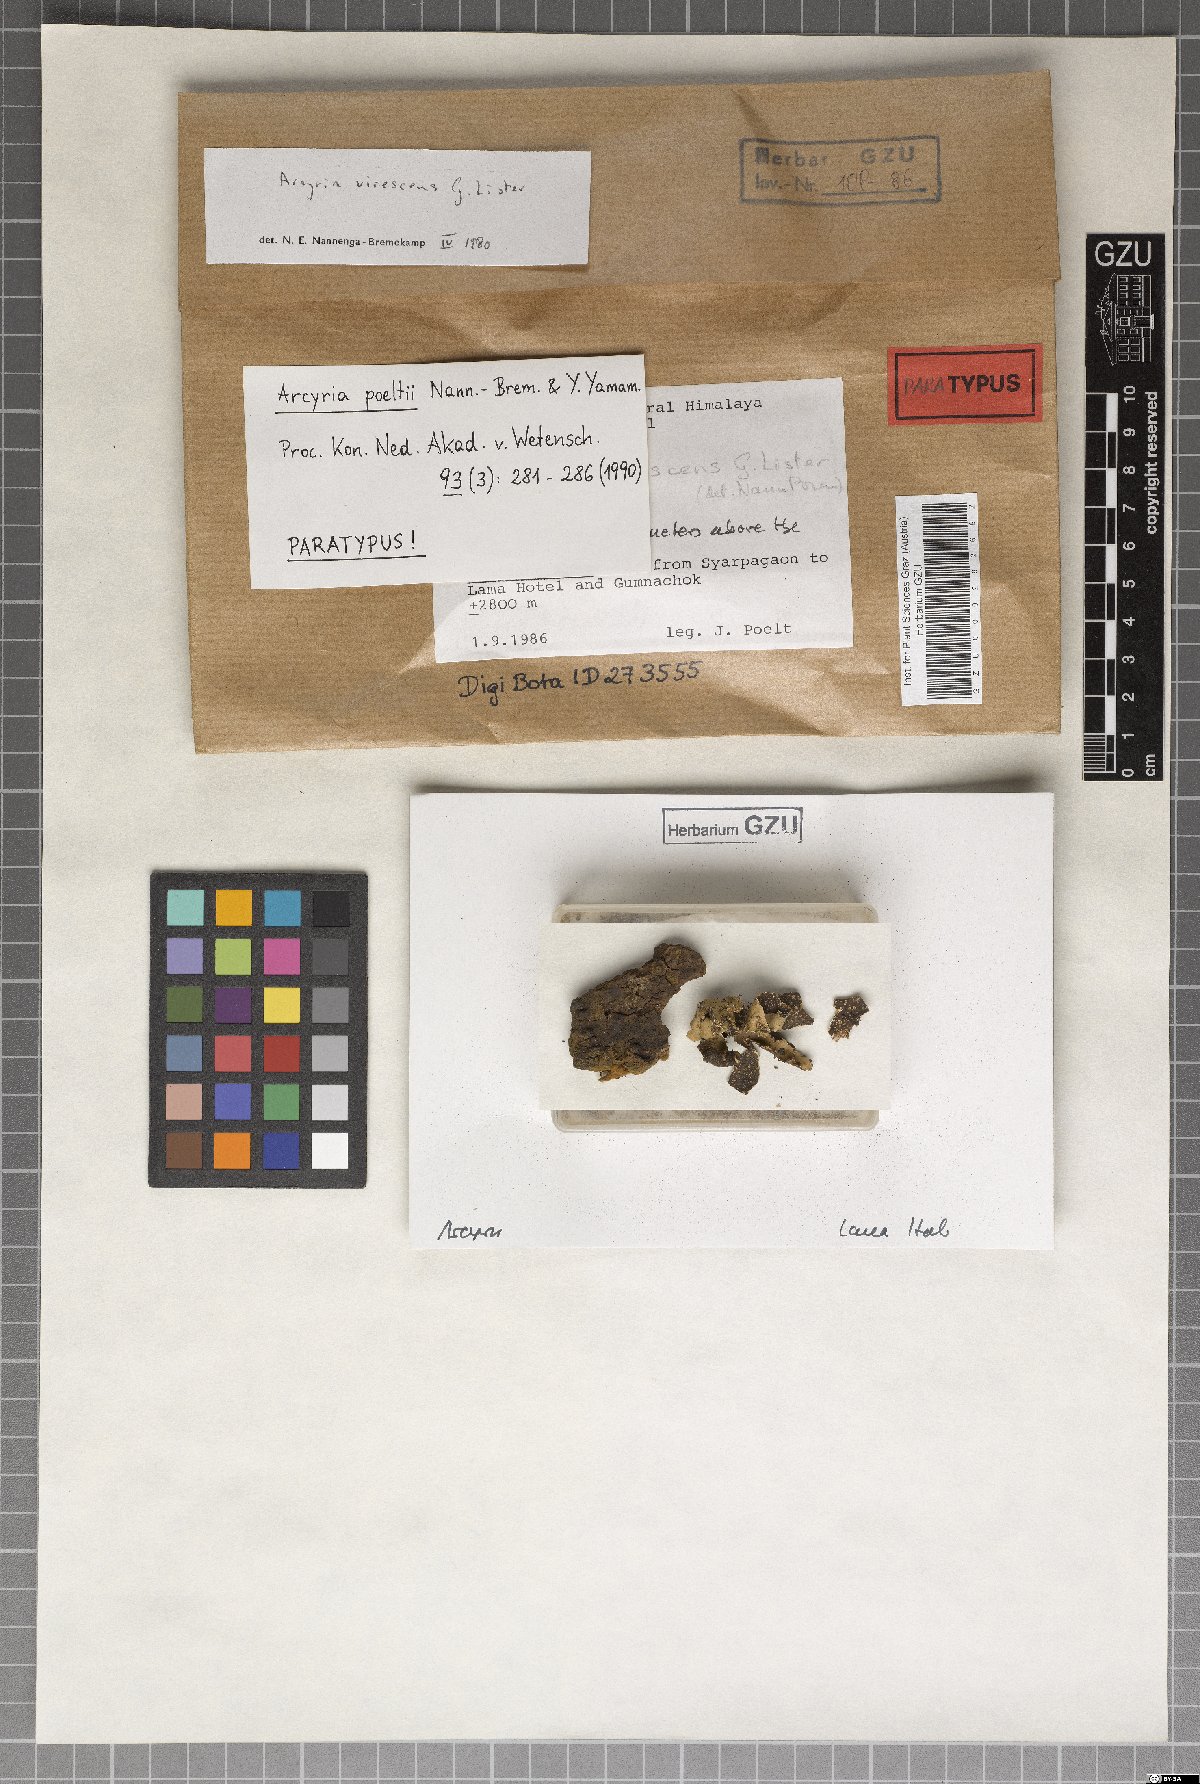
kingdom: Protozoa
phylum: Mycetozoa
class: Myxomycetes
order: Trichiales
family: Arcyriaceae
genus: Arcyria
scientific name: Arcyria poeltii
